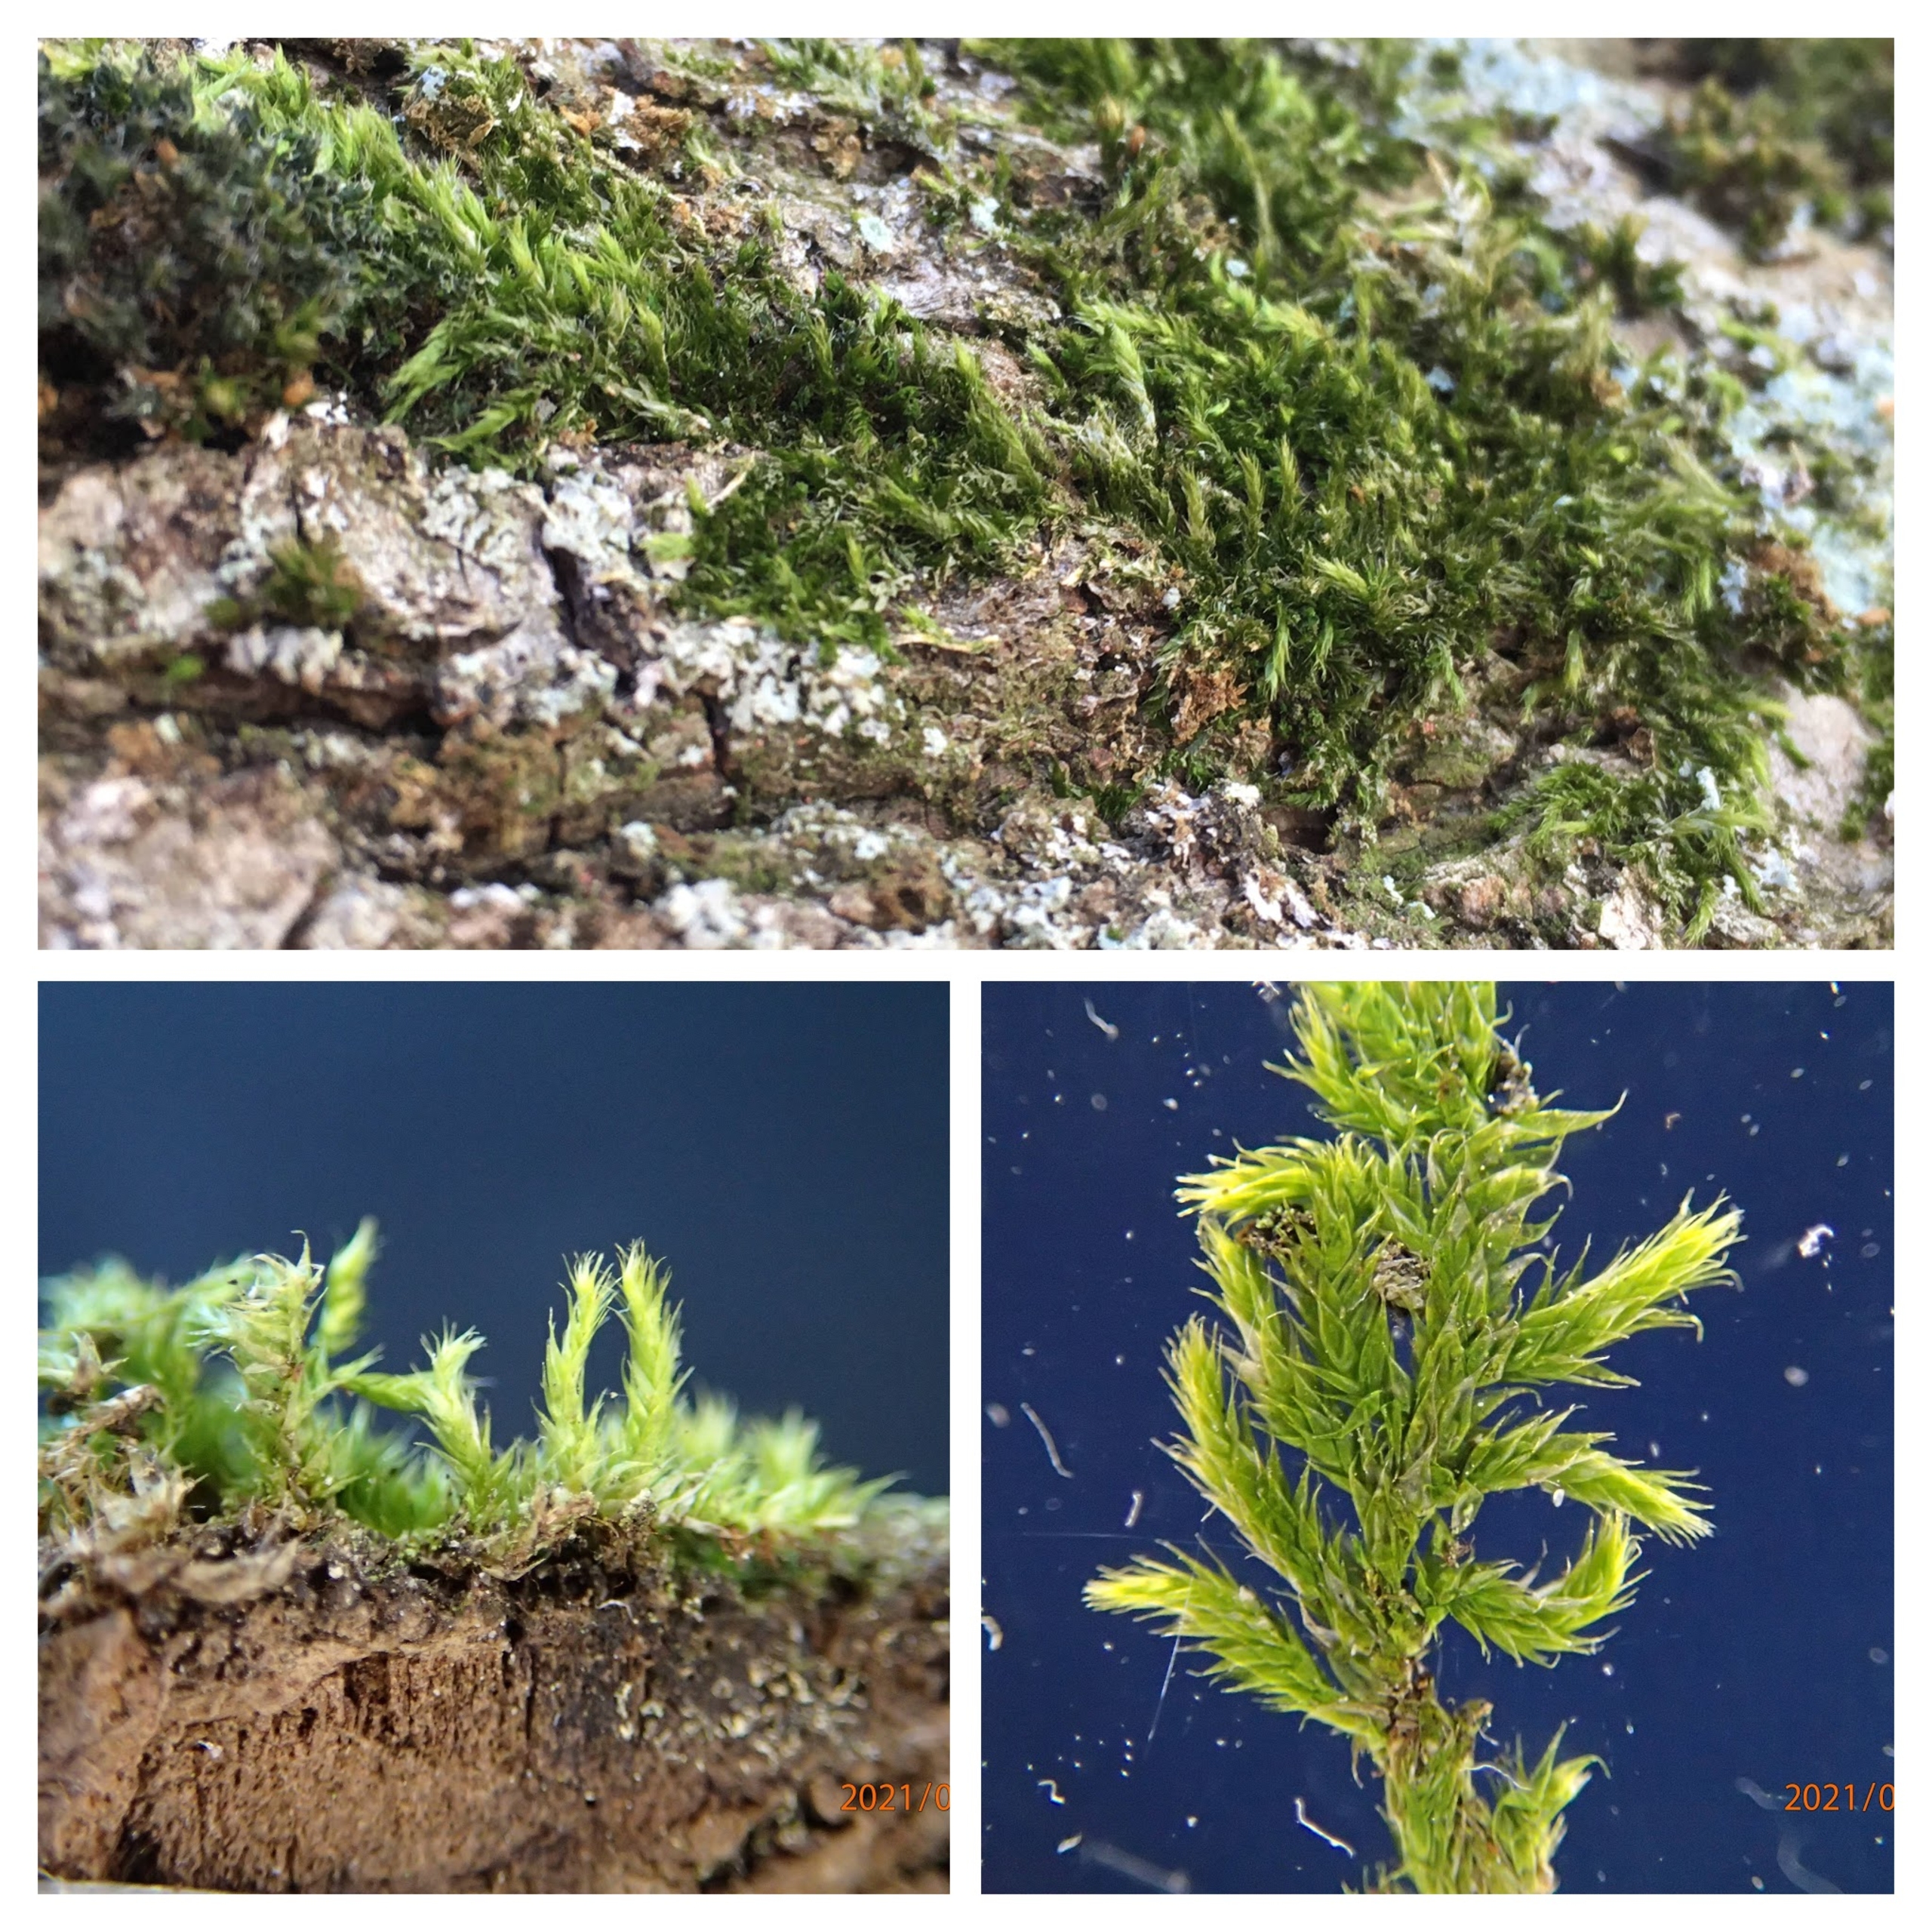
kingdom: Plantae
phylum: Bryophyta
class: Bryopsida
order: Hypnales
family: Hypnaceae
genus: Hypnum
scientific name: Hypnum cupressiforme
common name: Almindelig cypresmos
